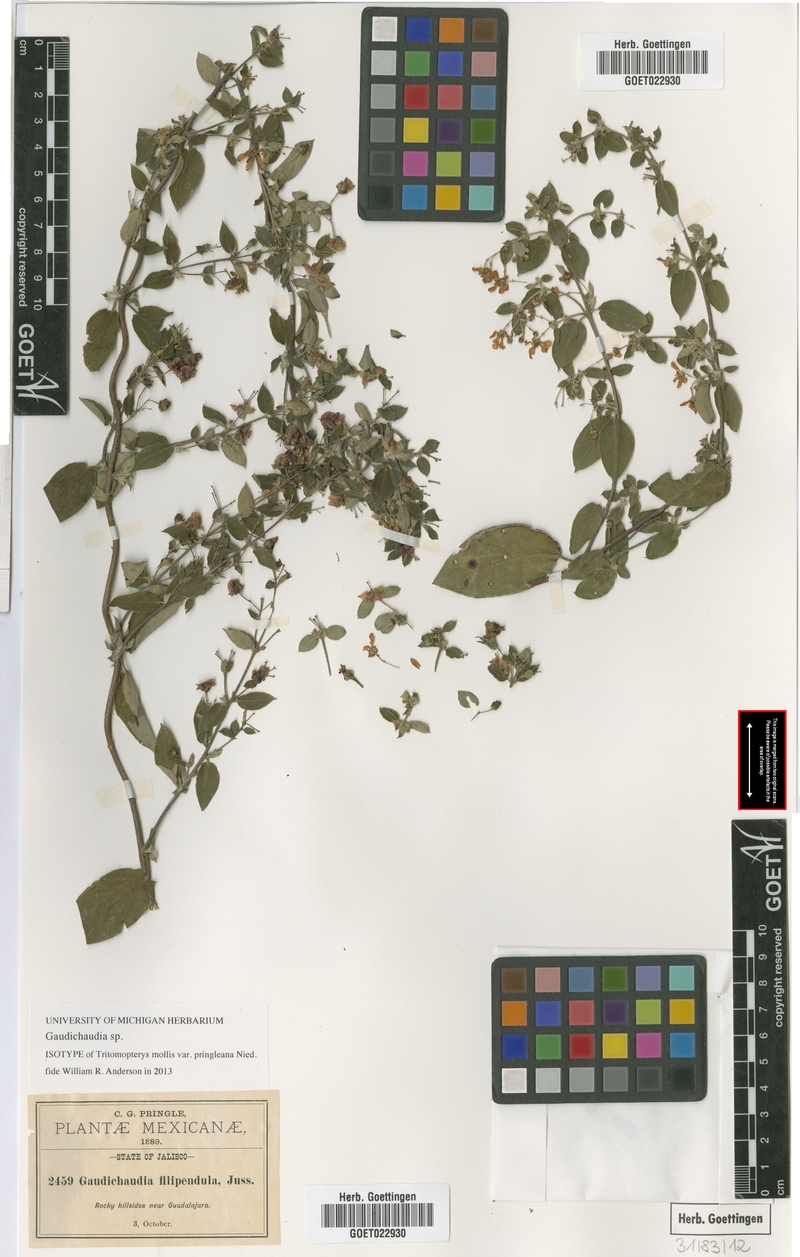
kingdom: Plantae
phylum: Tracheophyta
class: Magnoliopsida
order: Malpighiales
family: Malpighiaceae
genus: Gaudichaudia
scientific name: Gaudichaudia
